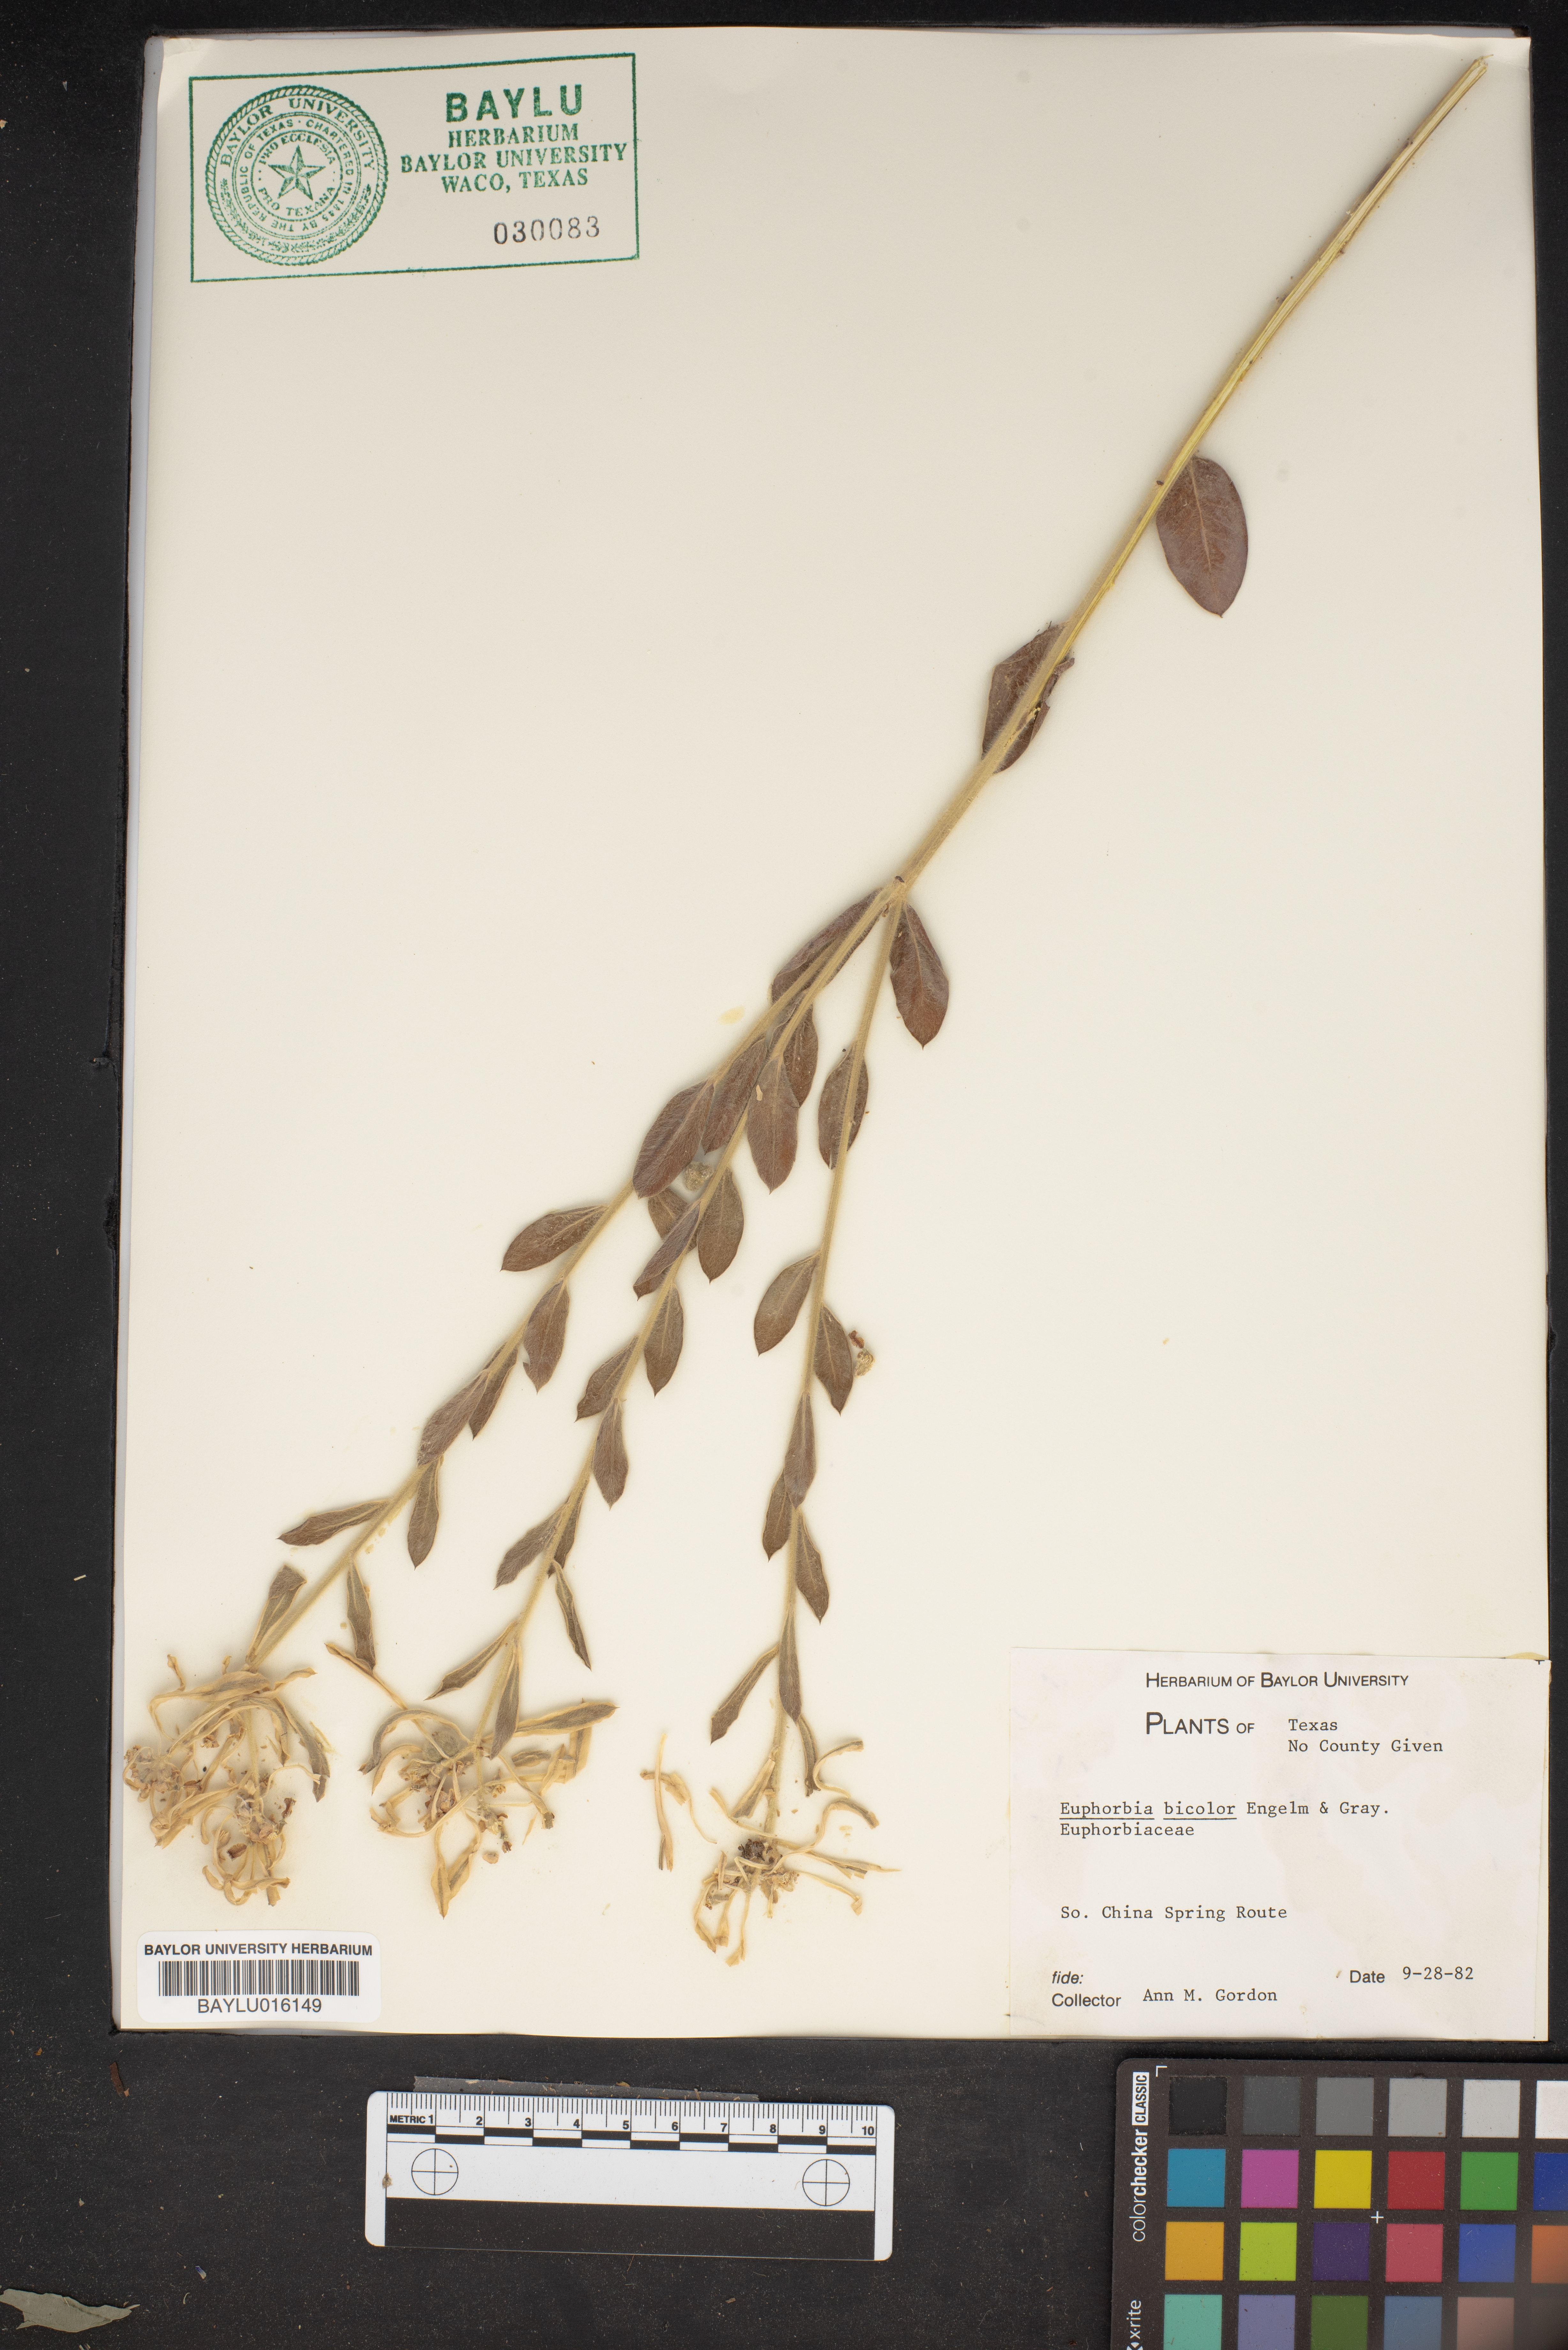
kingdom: Plantae
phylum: Tracheophyta
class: Magnoliopsida
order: Malpighiales
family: Euphorbiaceae
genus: Euphorbia
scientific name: Euphorbia bicolor
